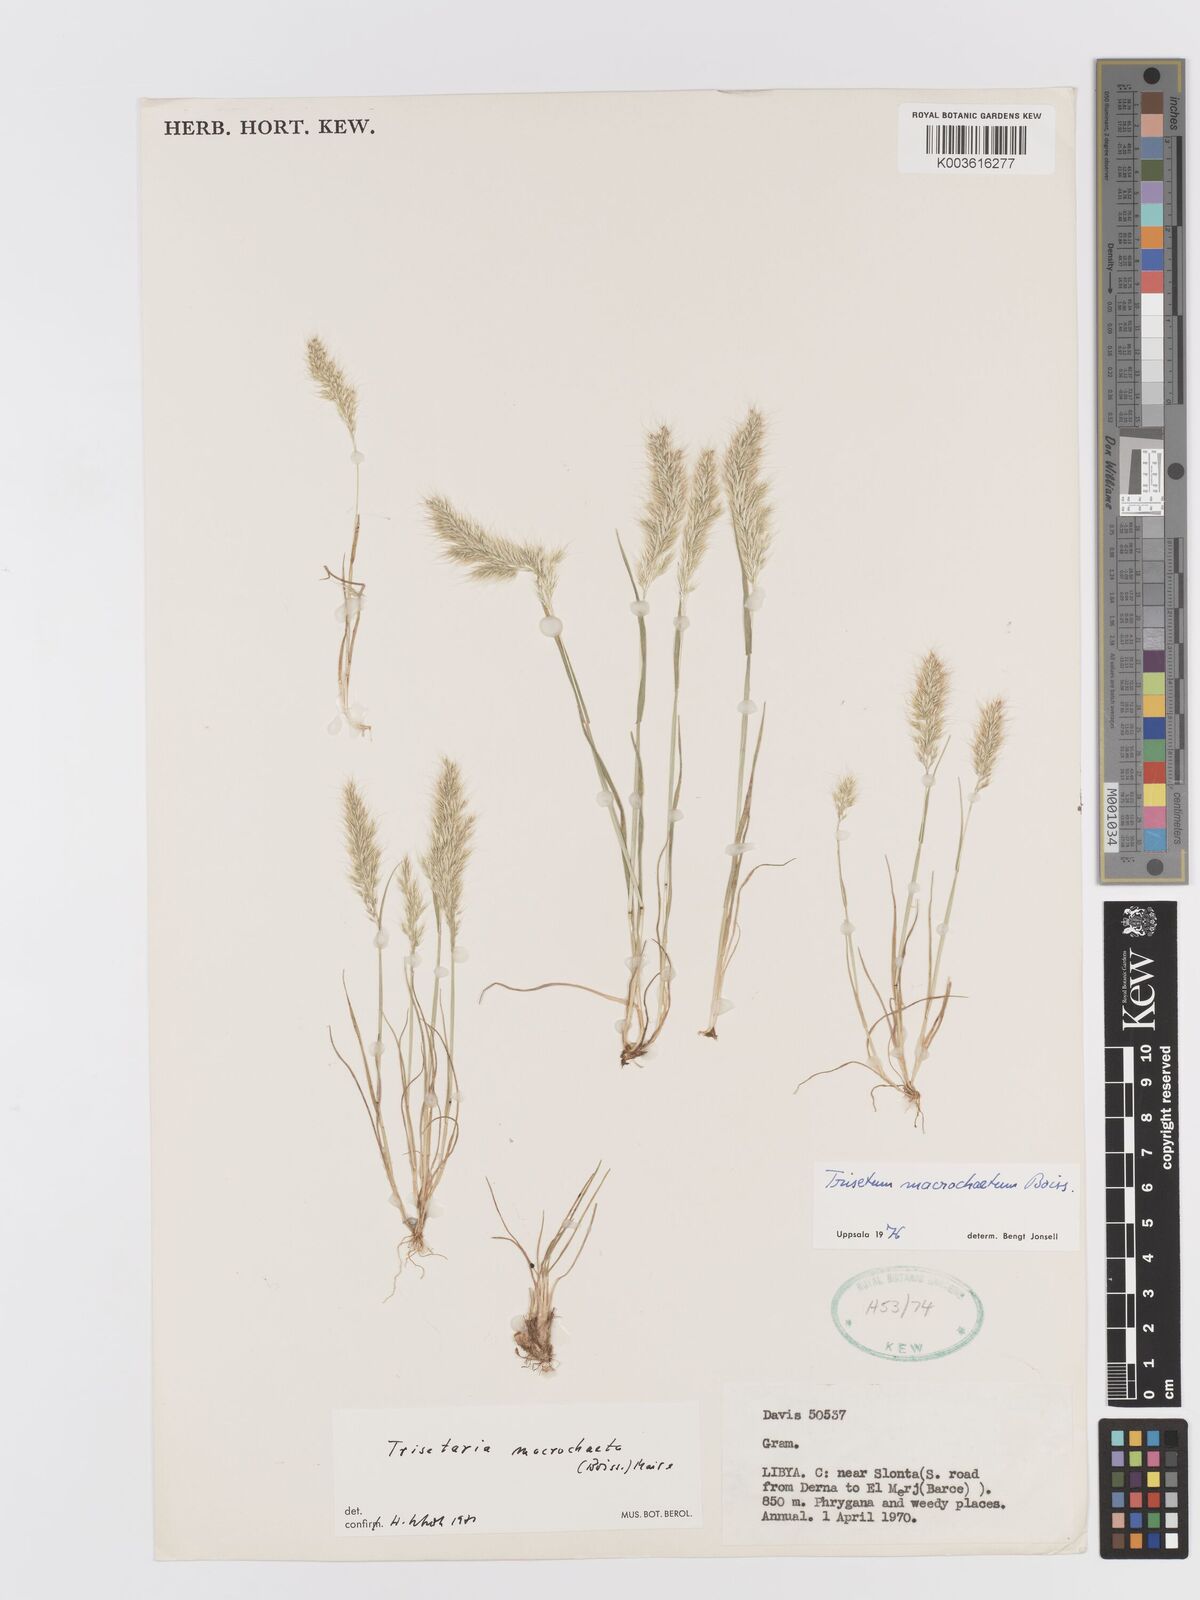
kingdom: Plantae
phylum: Tracheophyta
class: Liliopsida
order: Poales
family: Poaceae
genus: Trisetaria
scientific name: Trisetaria macrochaeta
